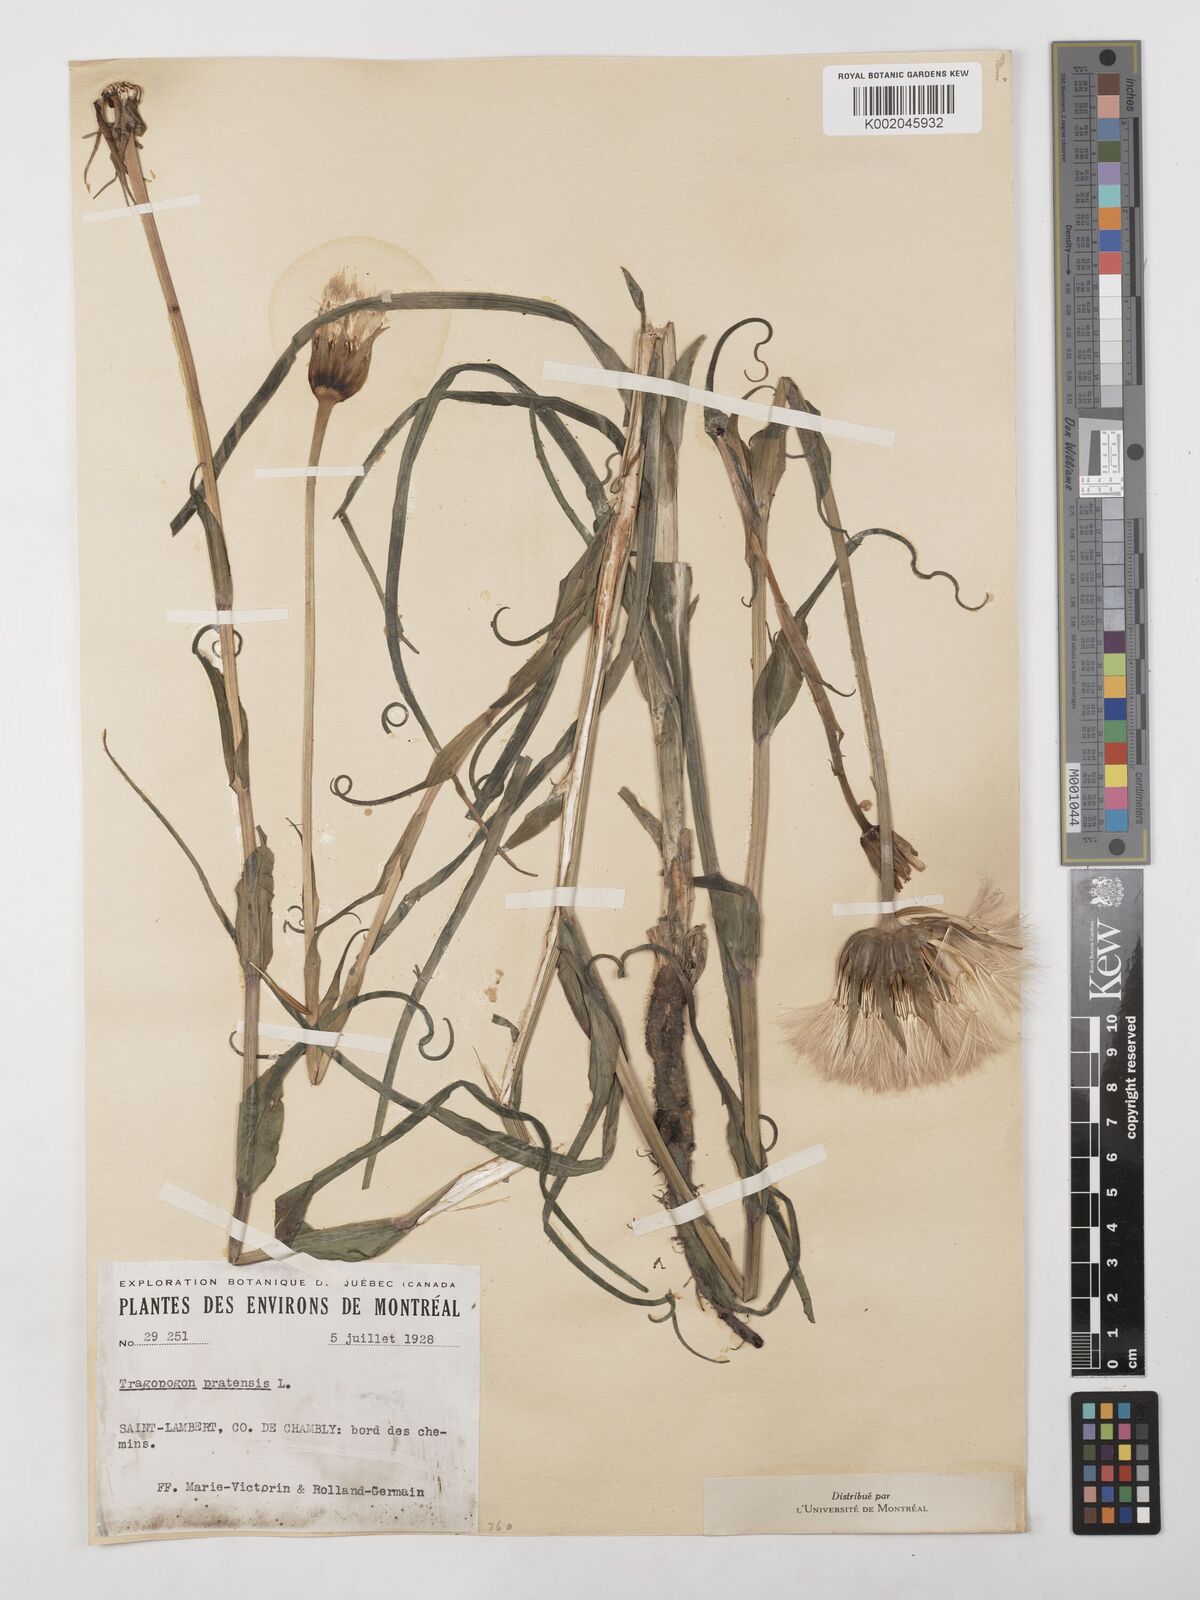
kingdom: Plantae
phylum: Tracheophyta
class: Magnoliopsida
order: Asterales
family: Asteraceae
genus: Tragopogon
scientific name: Tragopogon pratensis
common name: Goat's-beard
